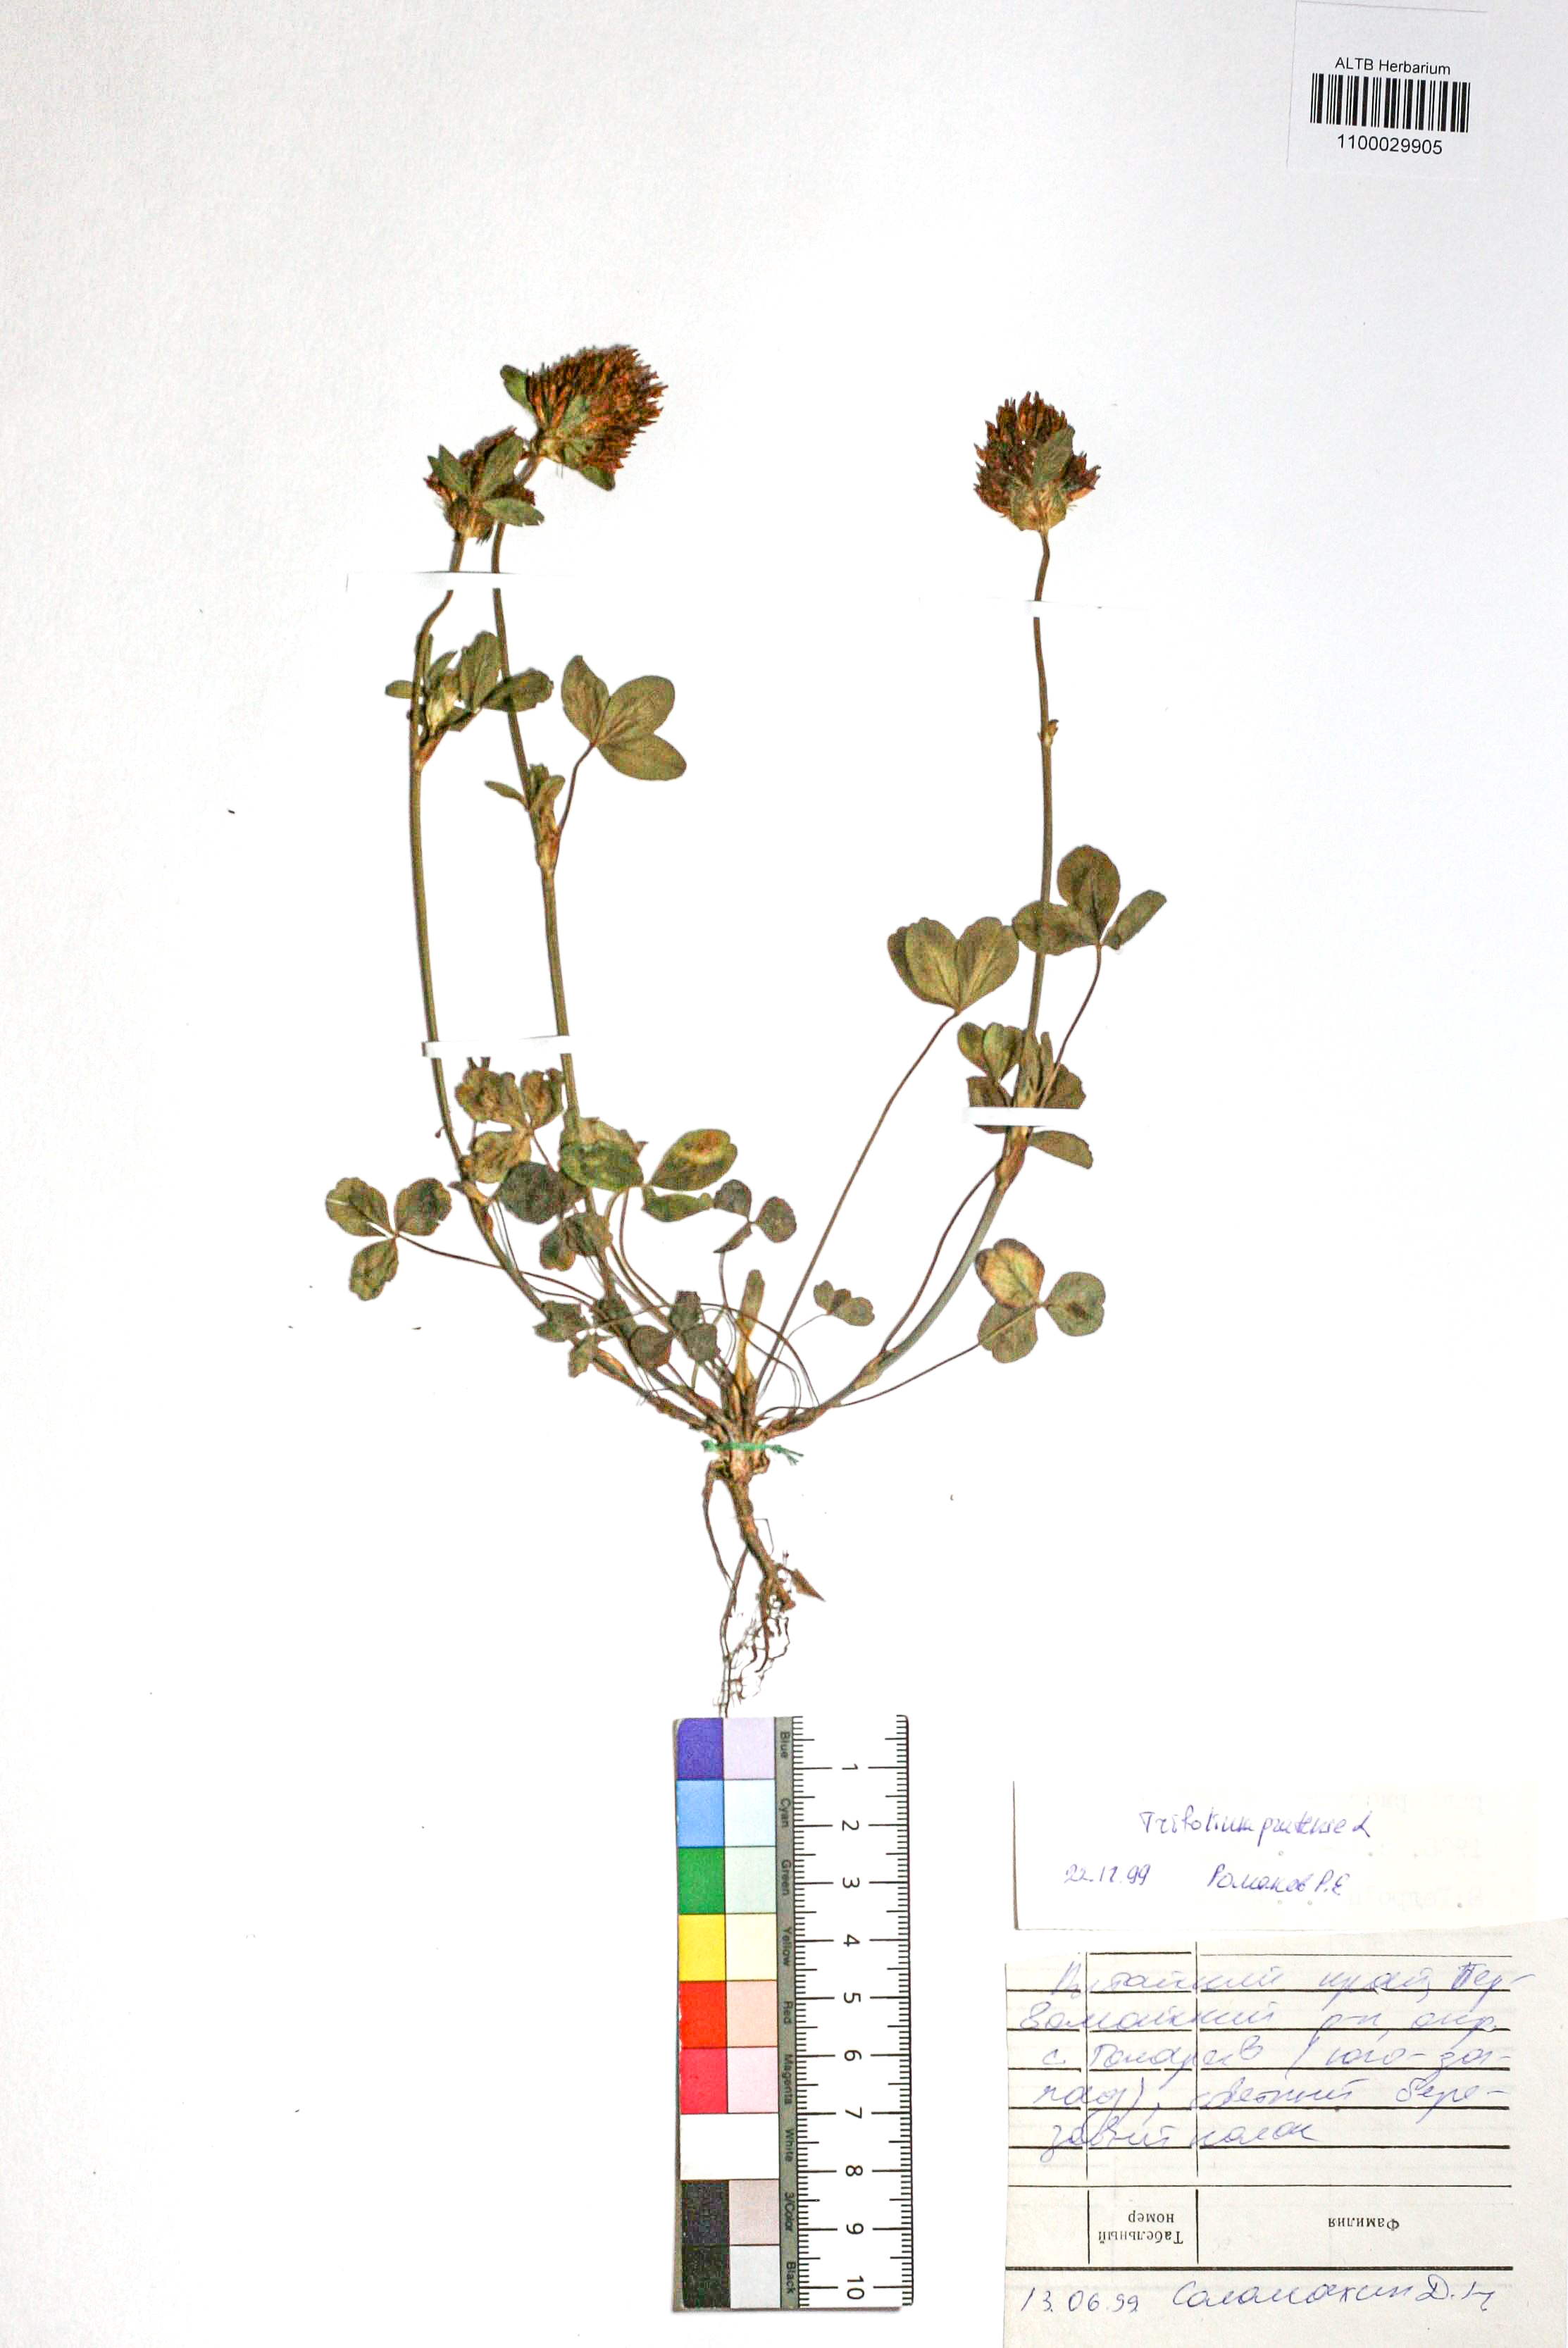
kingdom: Plantae
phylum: Tracheophyta
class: Magnoliopsida
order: Fabales
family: Fabaceae
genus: Trifolium
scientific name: Trifolium pratense
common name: Red clover
